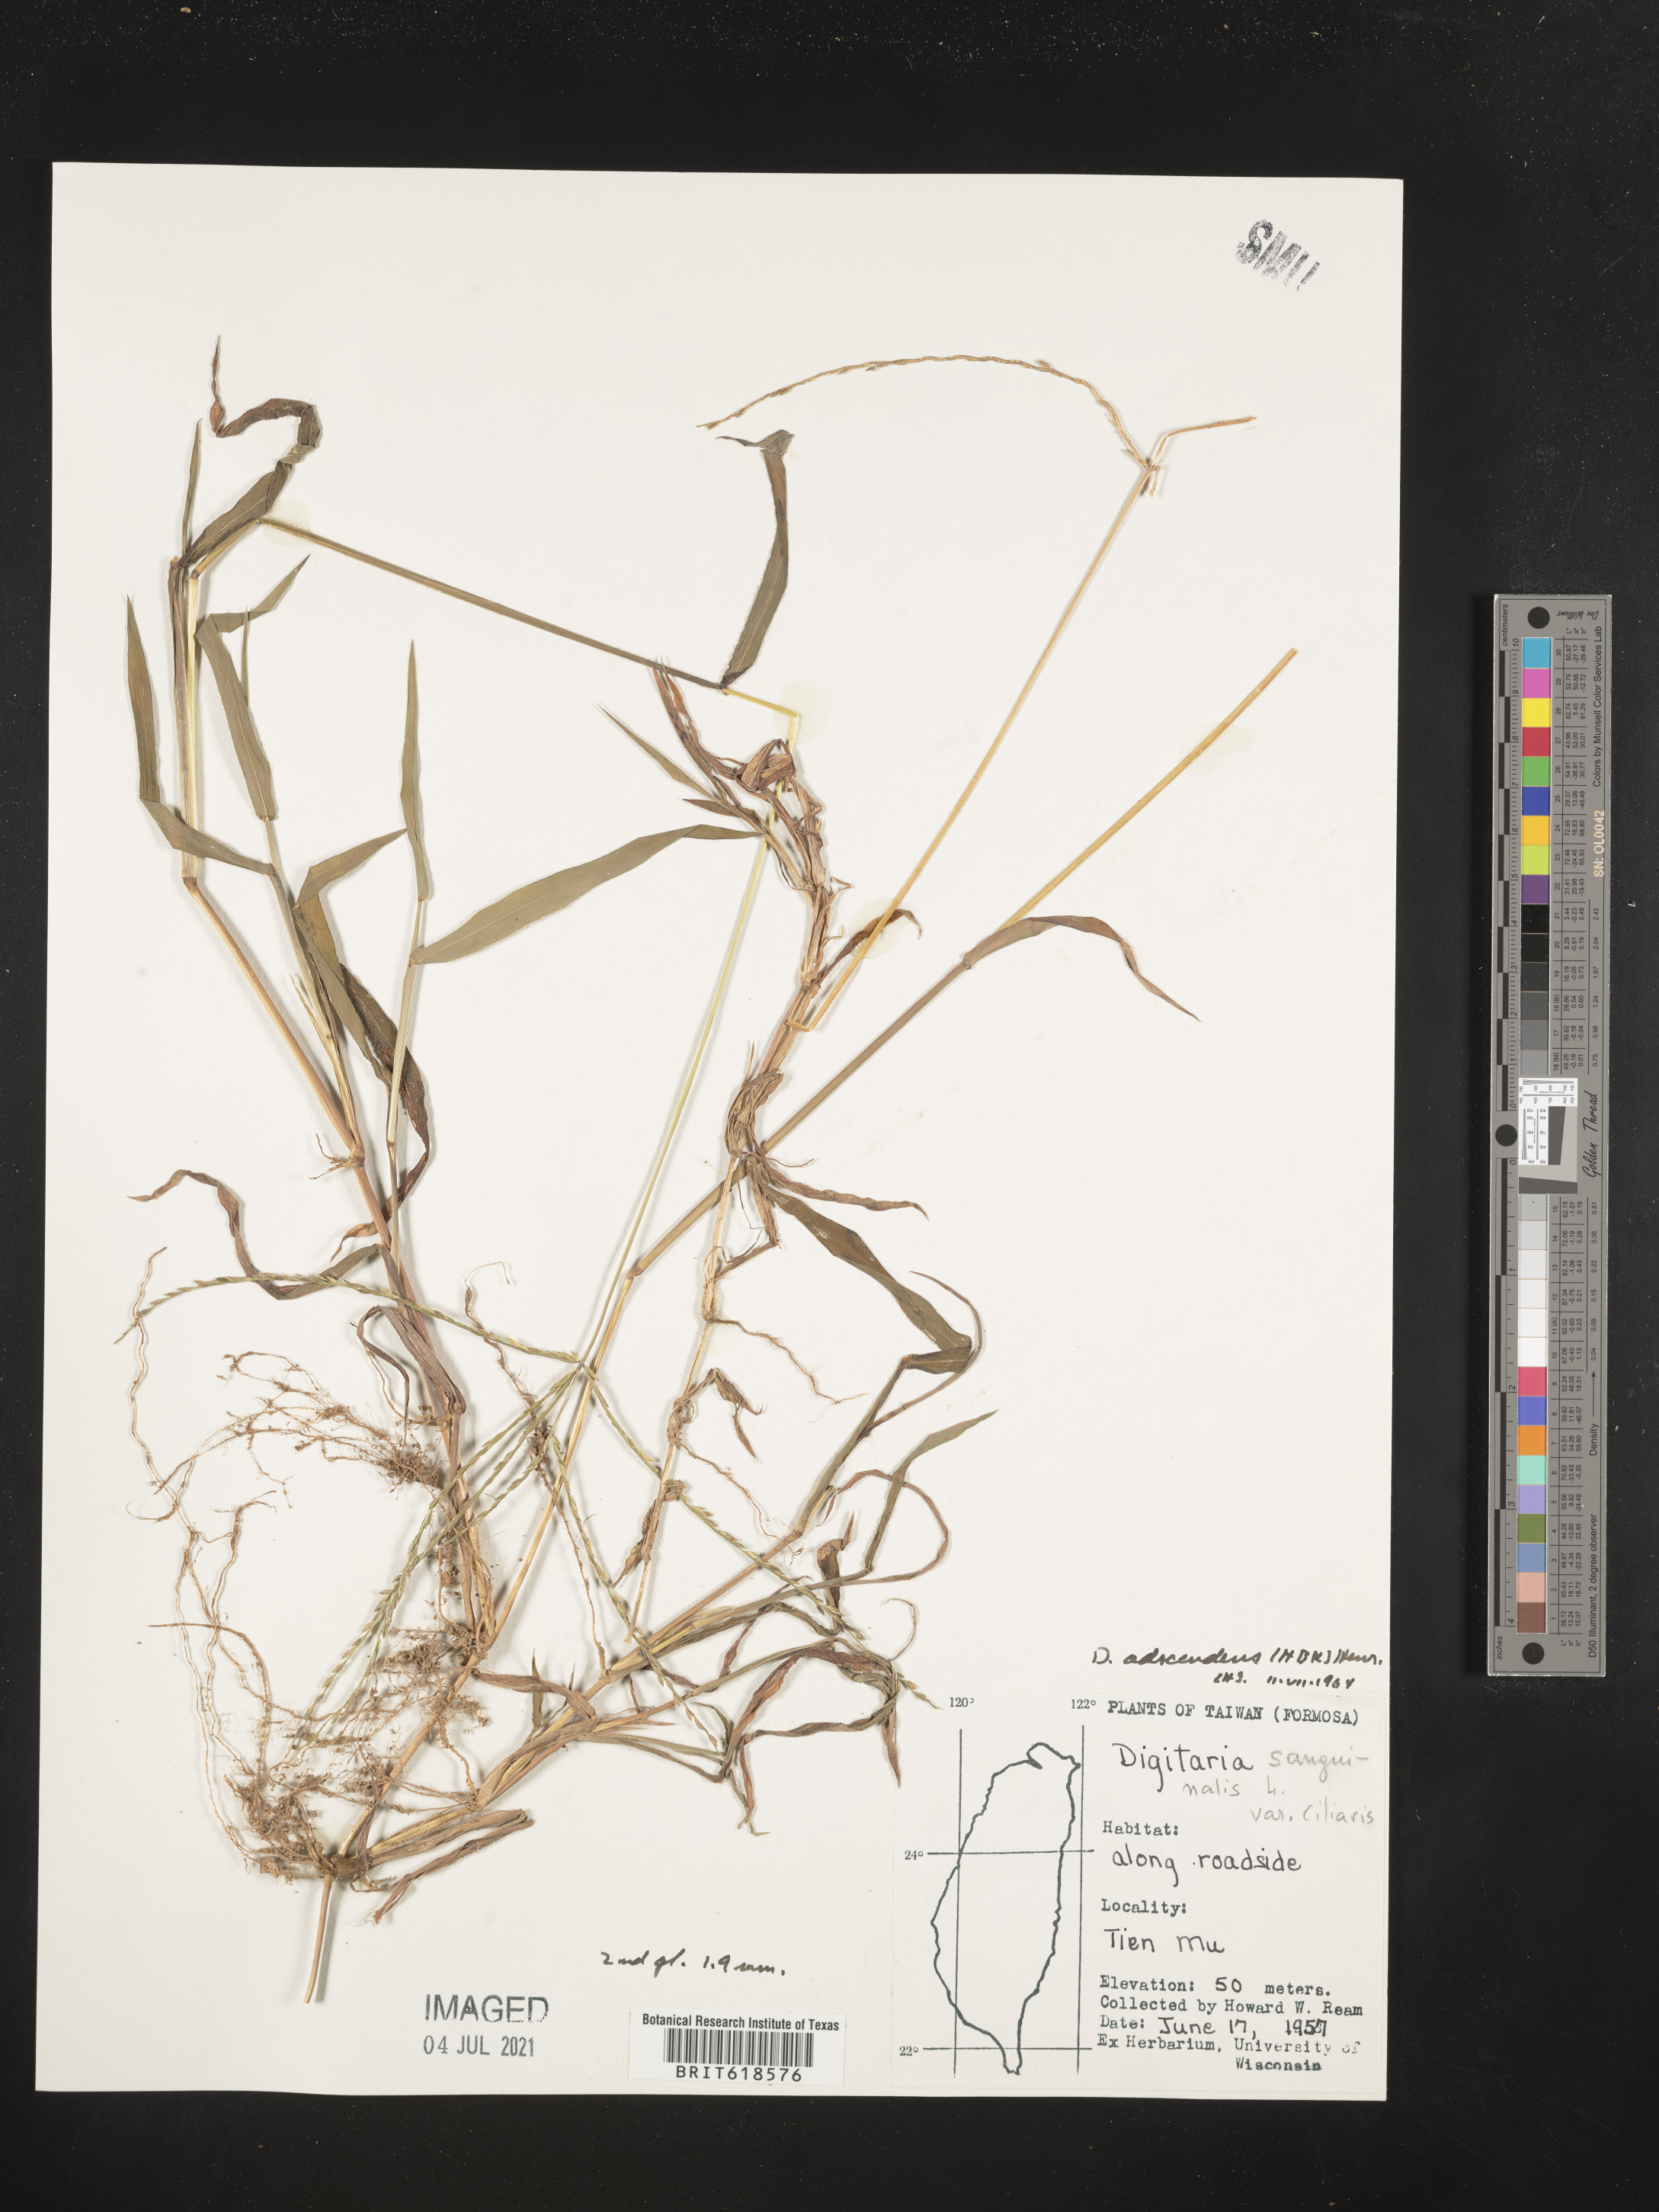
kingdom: Plantae
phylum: Tracheophyta
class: Liliopsida
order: Poales
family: Poaceae
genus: Digitaria
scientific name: Digitaria sanguinalis
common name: Hairy crabgrass
